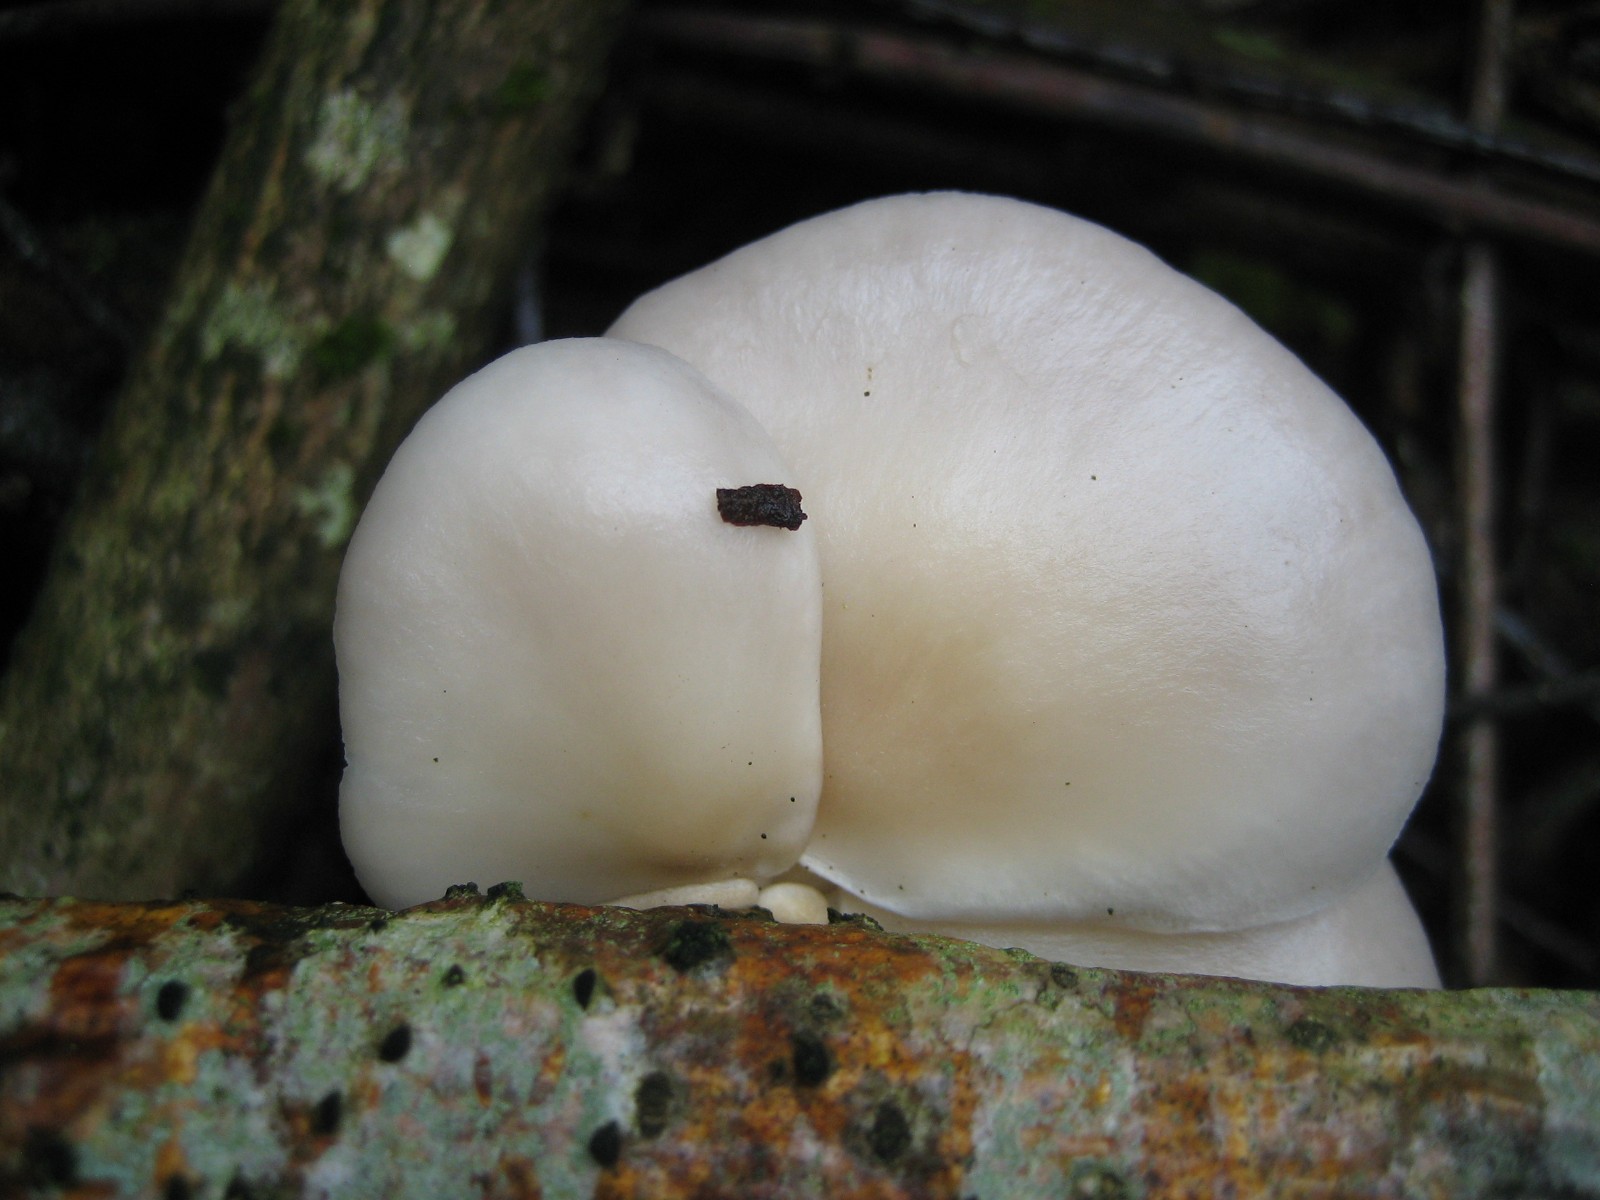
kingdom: Fungi
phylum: Basidiomycota
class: Agaricomycetes
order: Agaricales
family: Pleurotaceae
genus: Pleurotus
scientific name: Pleurotus pulmonarius
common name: sommer-østershat
